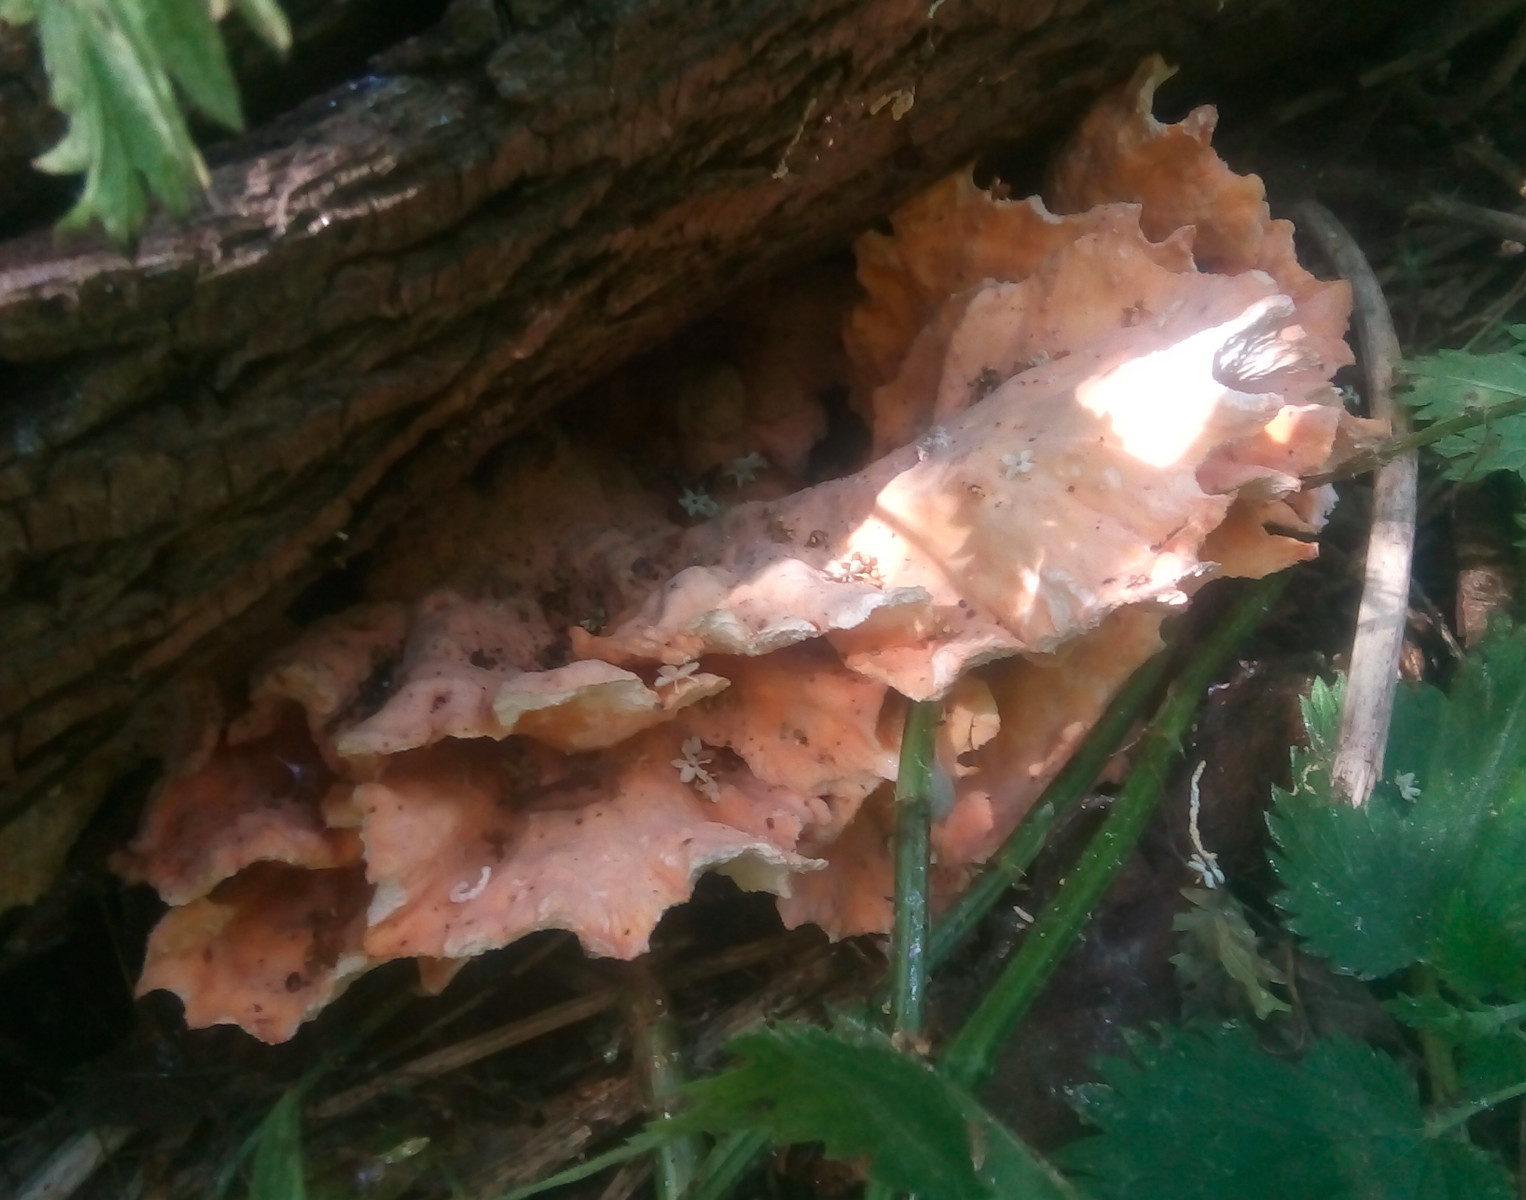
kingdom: Fungi
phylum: Basidiomycota
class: Agaricomycetes
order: Polyporales
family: Laetiporaceae
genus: Laetiporus
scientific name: Laetiporus sulphureus
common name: svovlporesvamp
